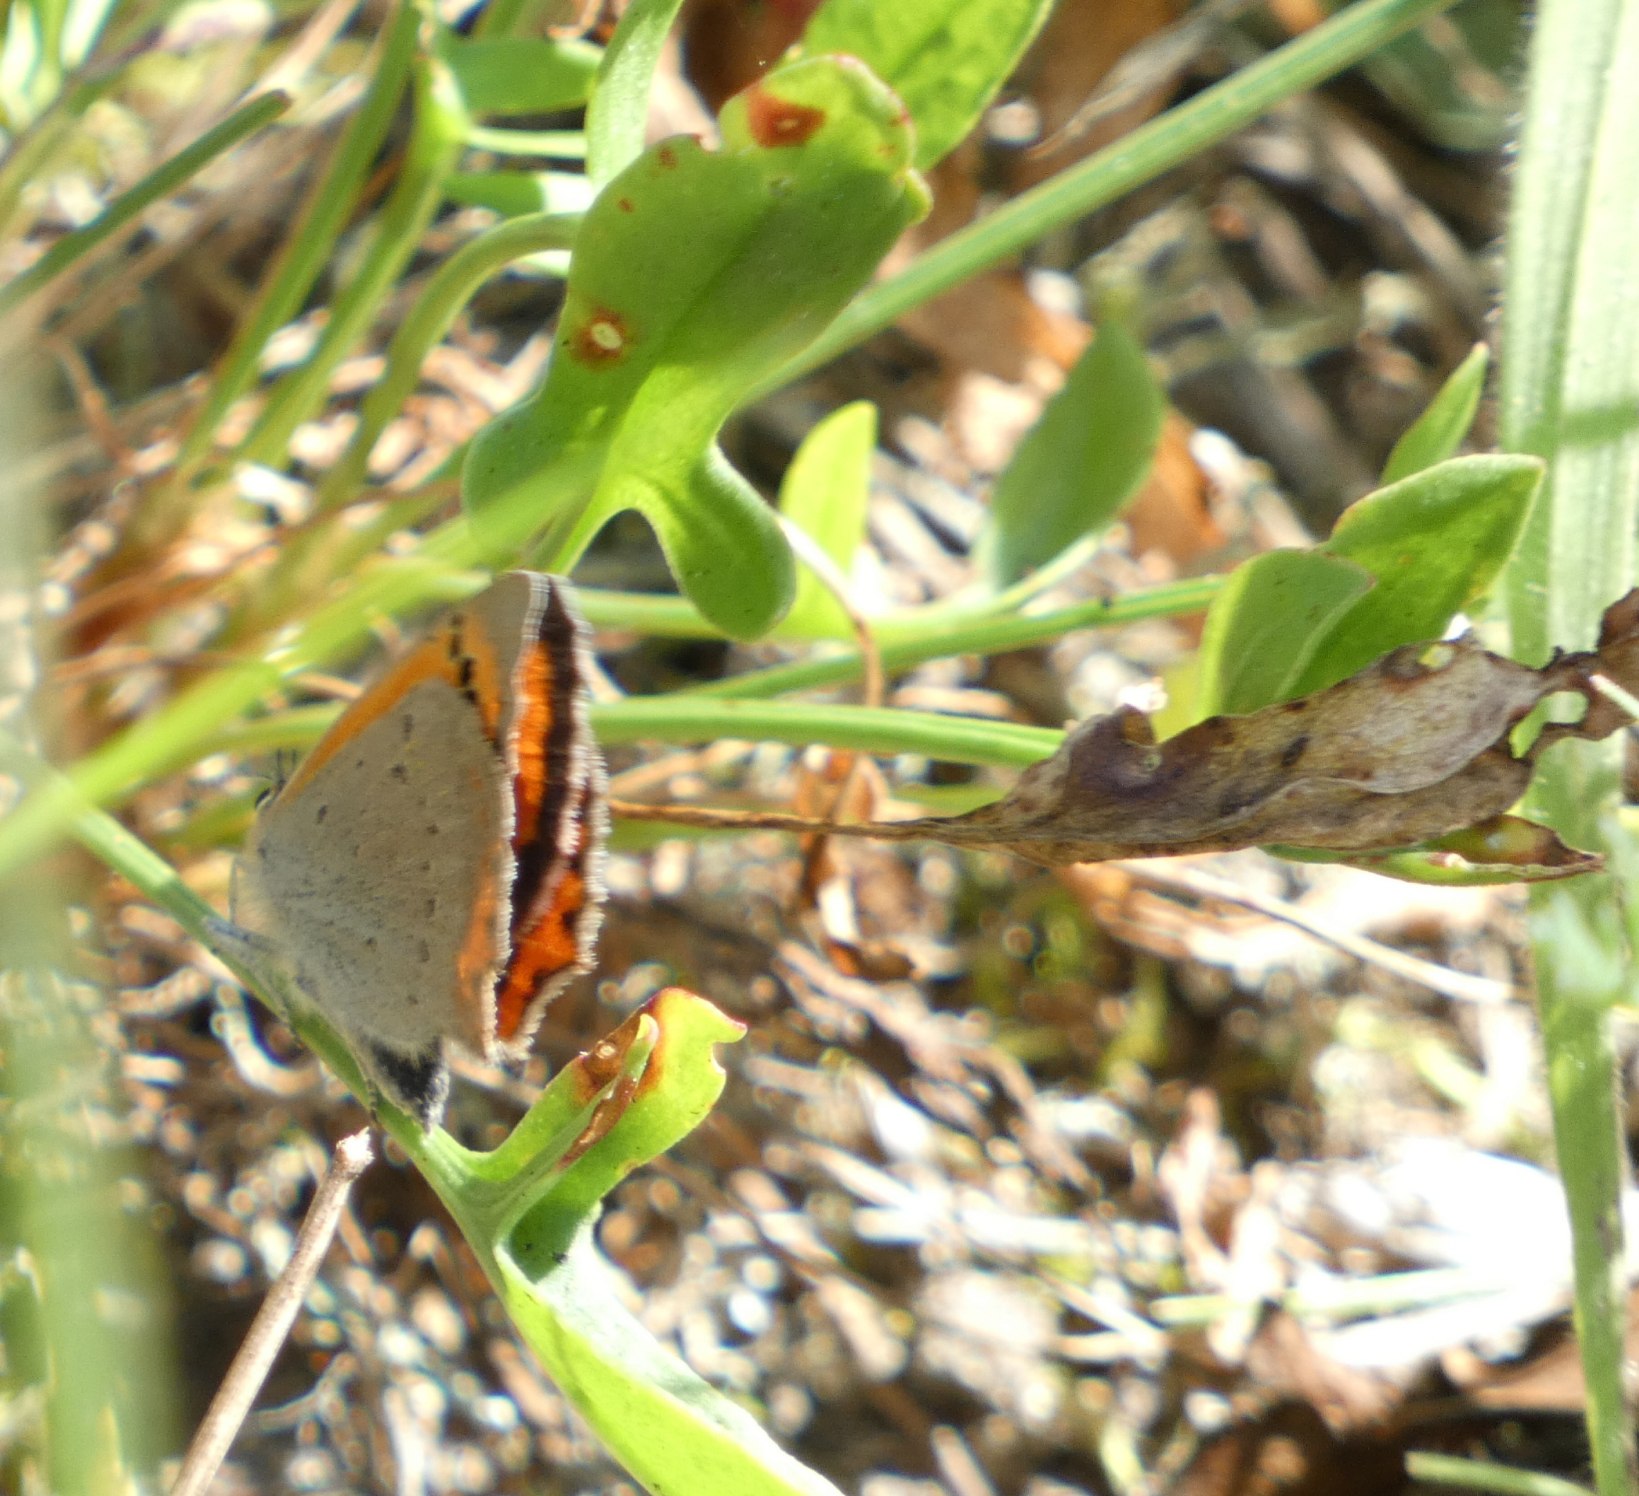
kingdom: Animalia
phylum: Arthropoda
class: Insecta
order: Lepidoptera
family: Lycaenidae
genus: Lycaena
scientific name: Lycaena phlaeas
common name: Lille ildfugl
